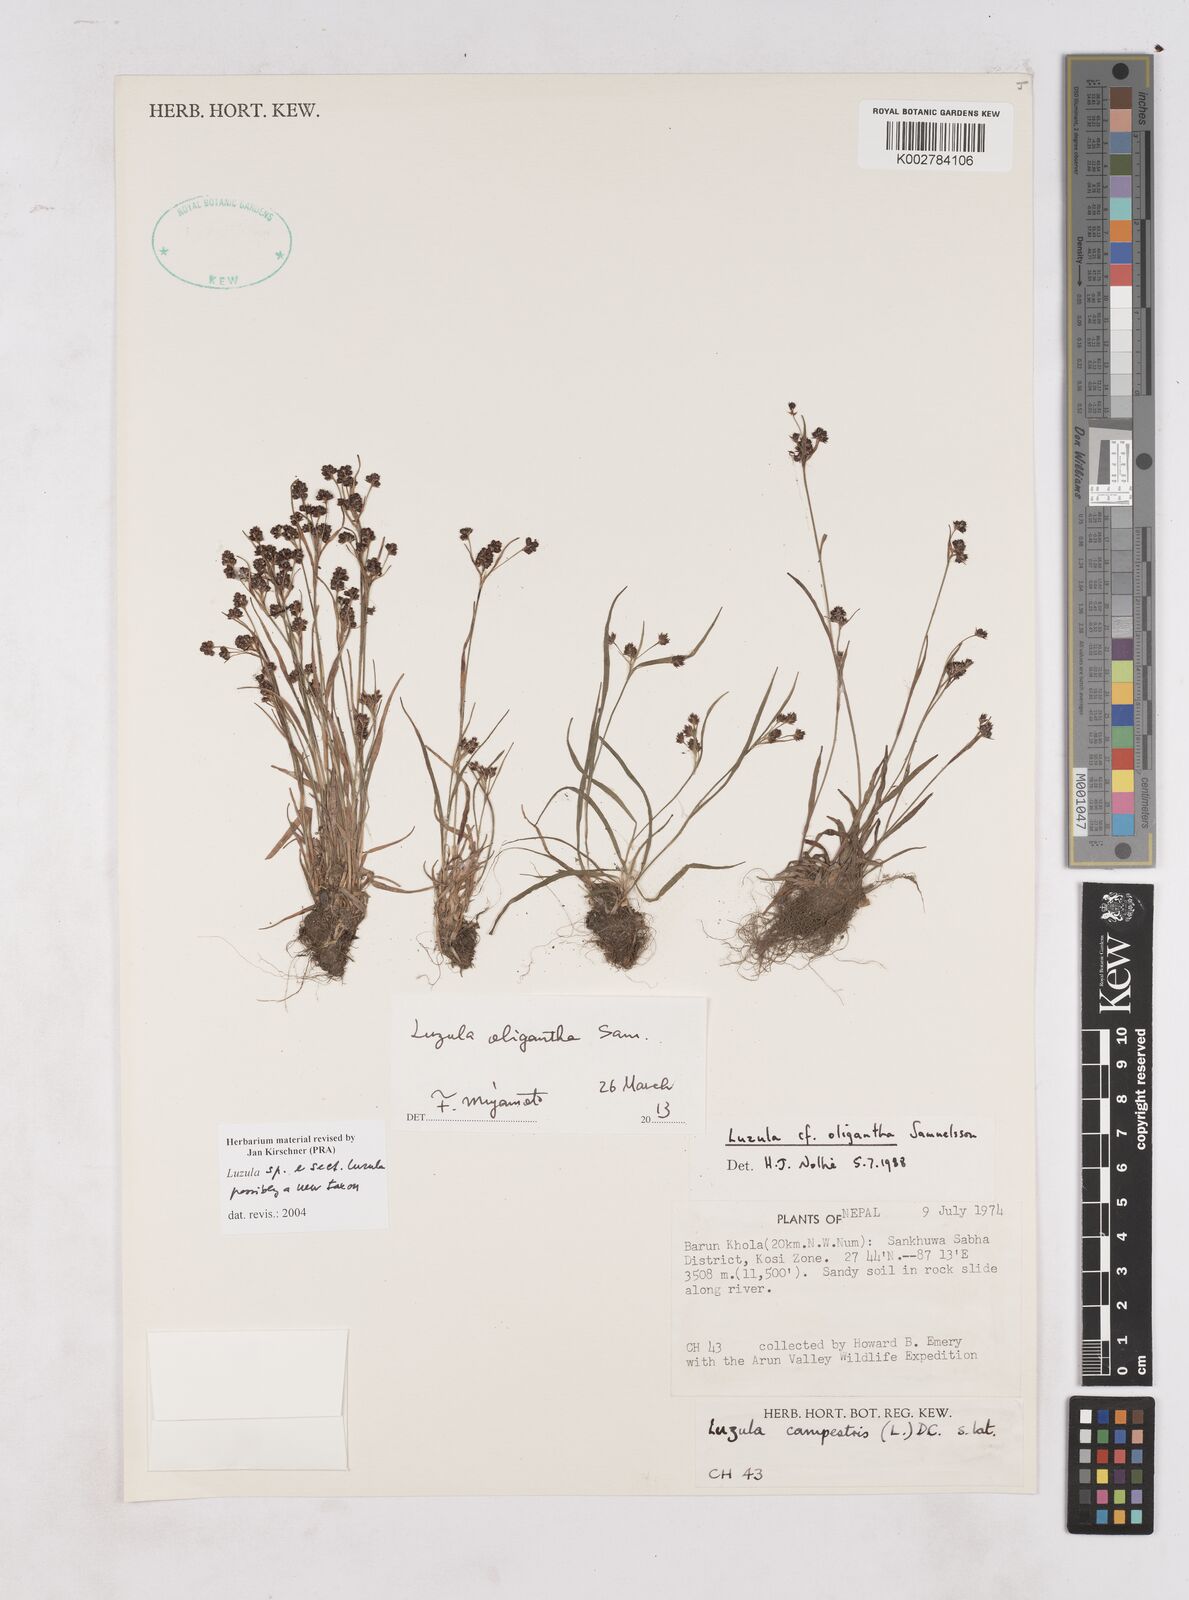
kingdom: Plantae
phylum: Tracheophyta
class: Liliopsida
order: Poales
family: Juncaceae
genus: Luzula
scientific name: Luzula
